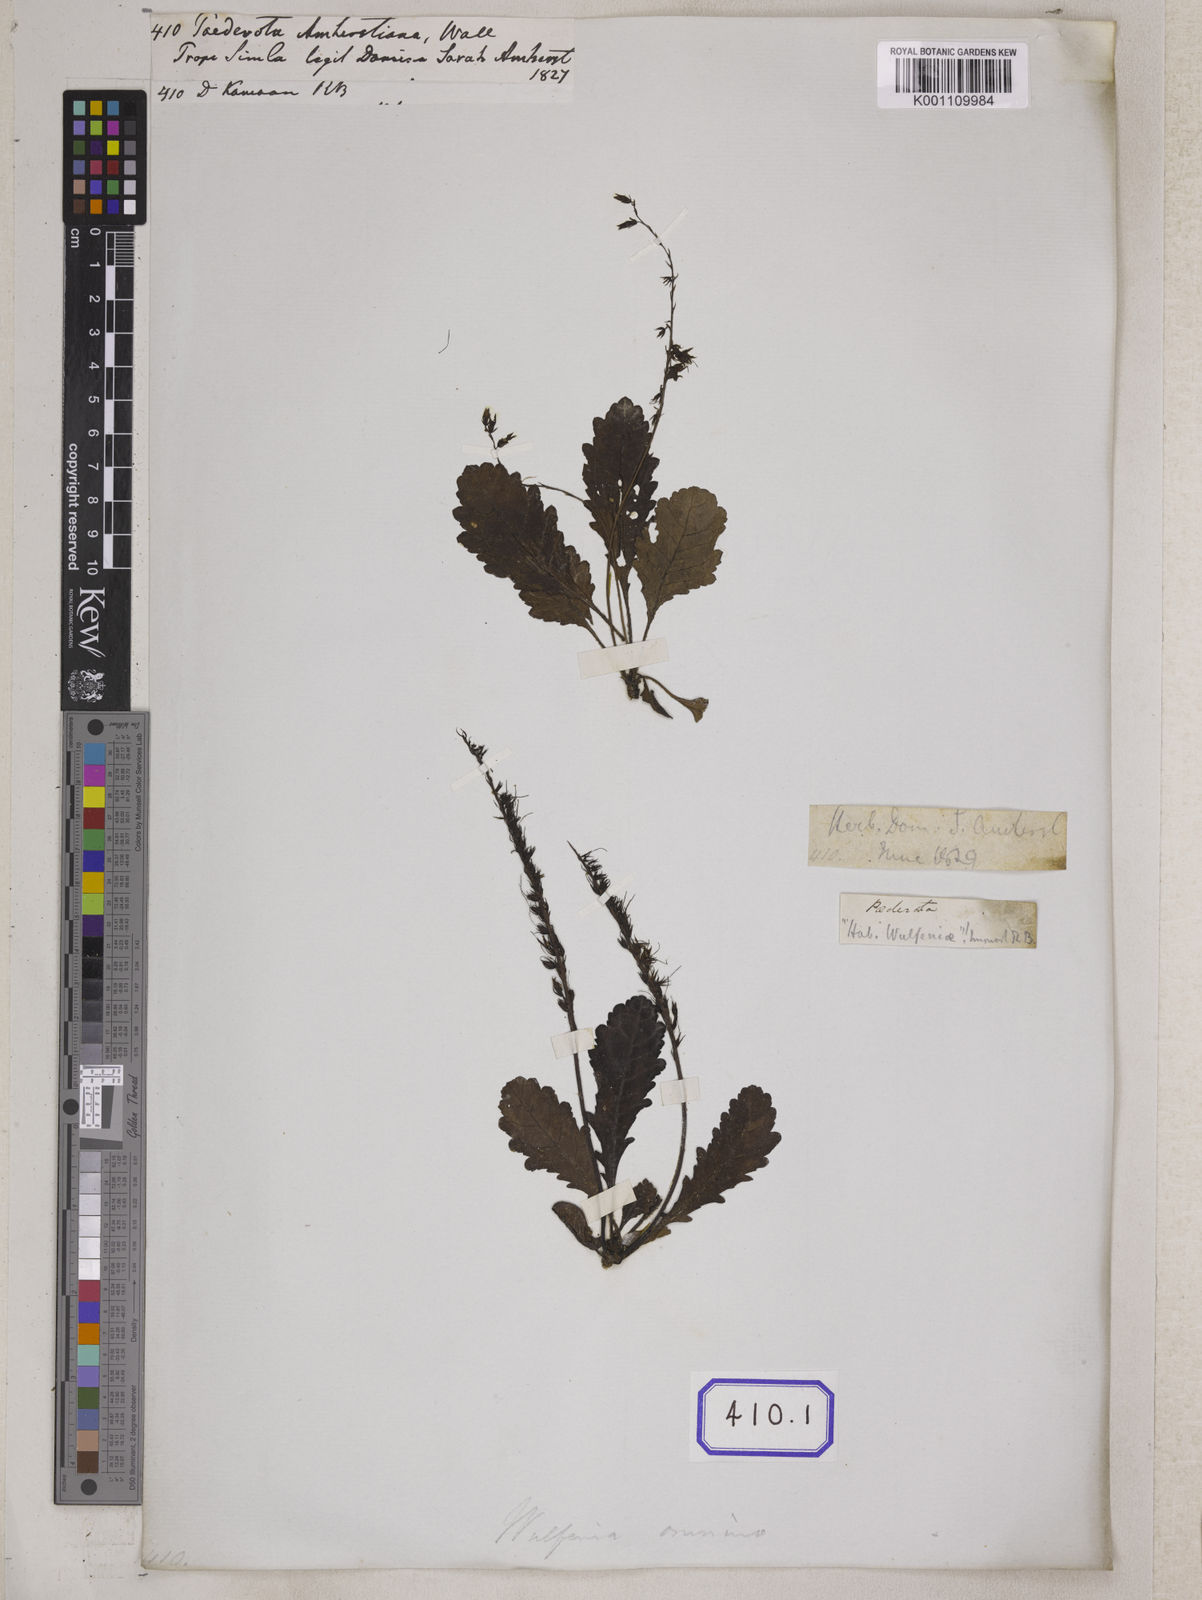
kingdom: Plantae
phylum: Tracheophyta
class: Magnoliopsida
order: Lamiales
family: Plantaginaceae
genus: Wulfeniopsis
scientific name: Wulfeniopsis amherstiana
